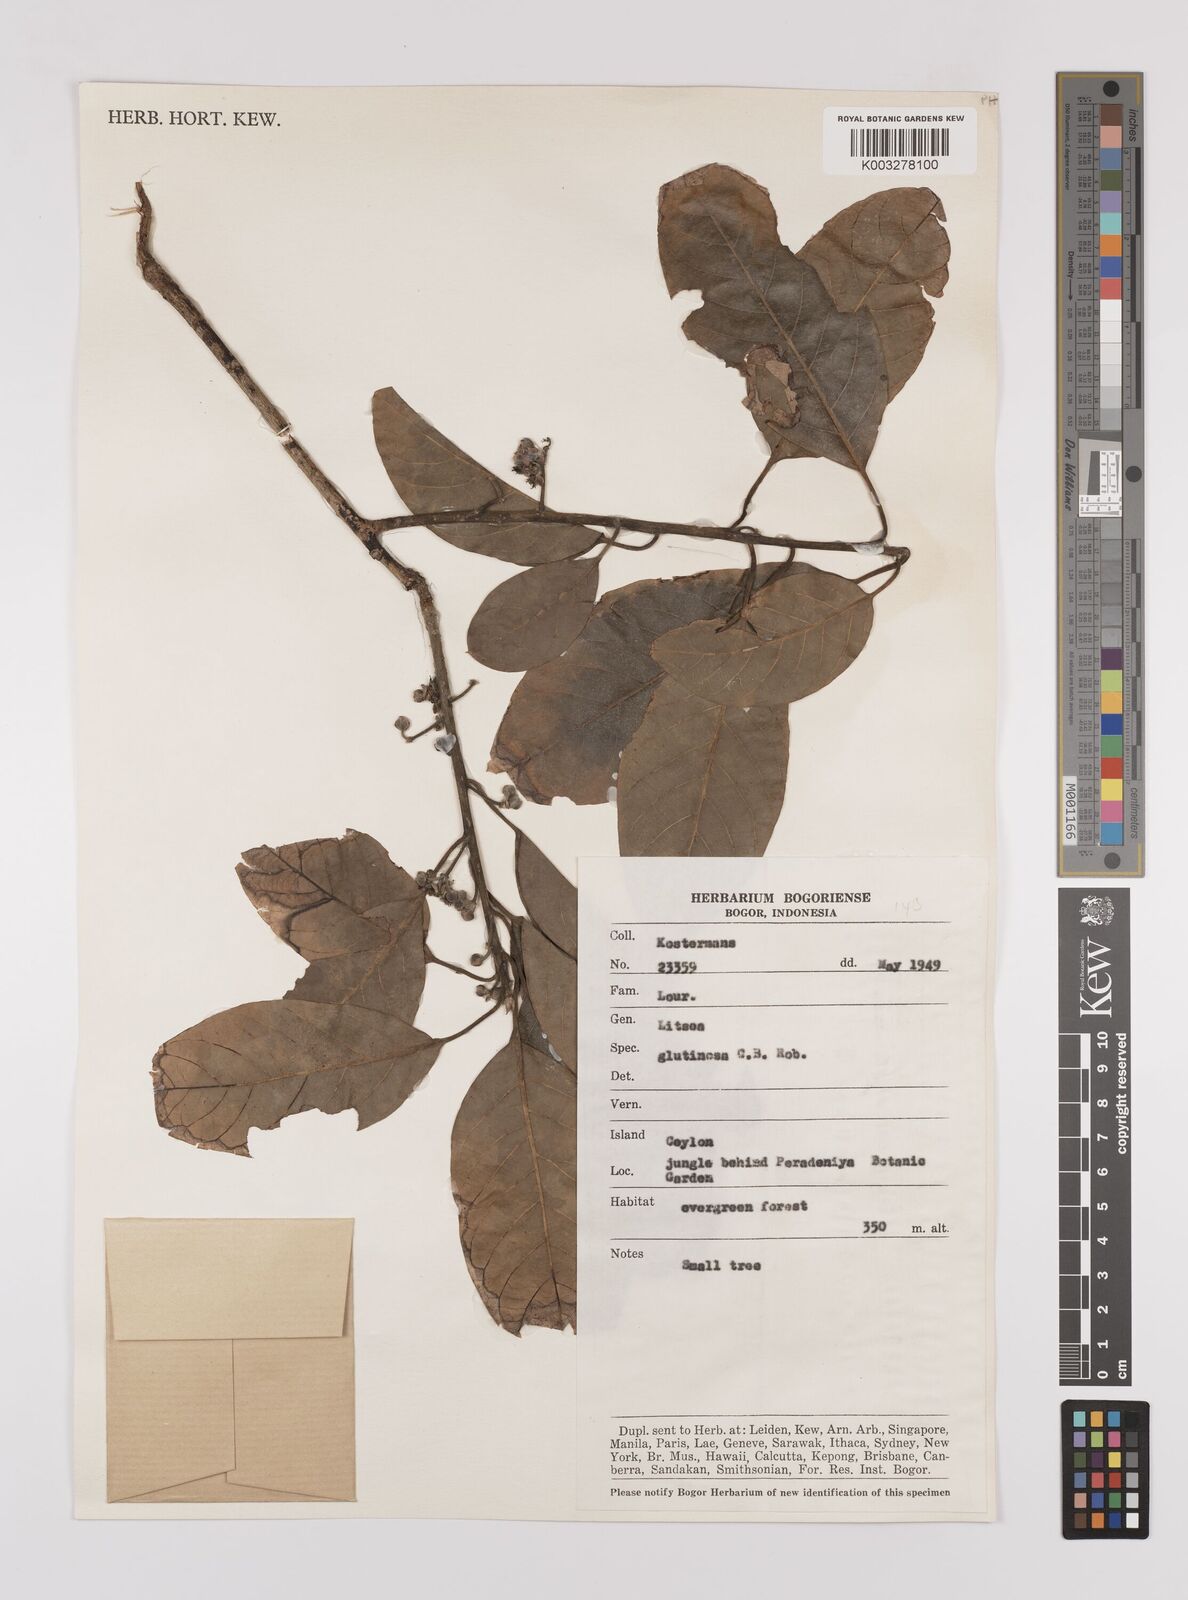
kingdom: Plantae
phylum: Tracheophyta
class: Magnoliopsida
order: Laurales
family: Lauraceae
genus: Litsea
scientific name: Litsea
